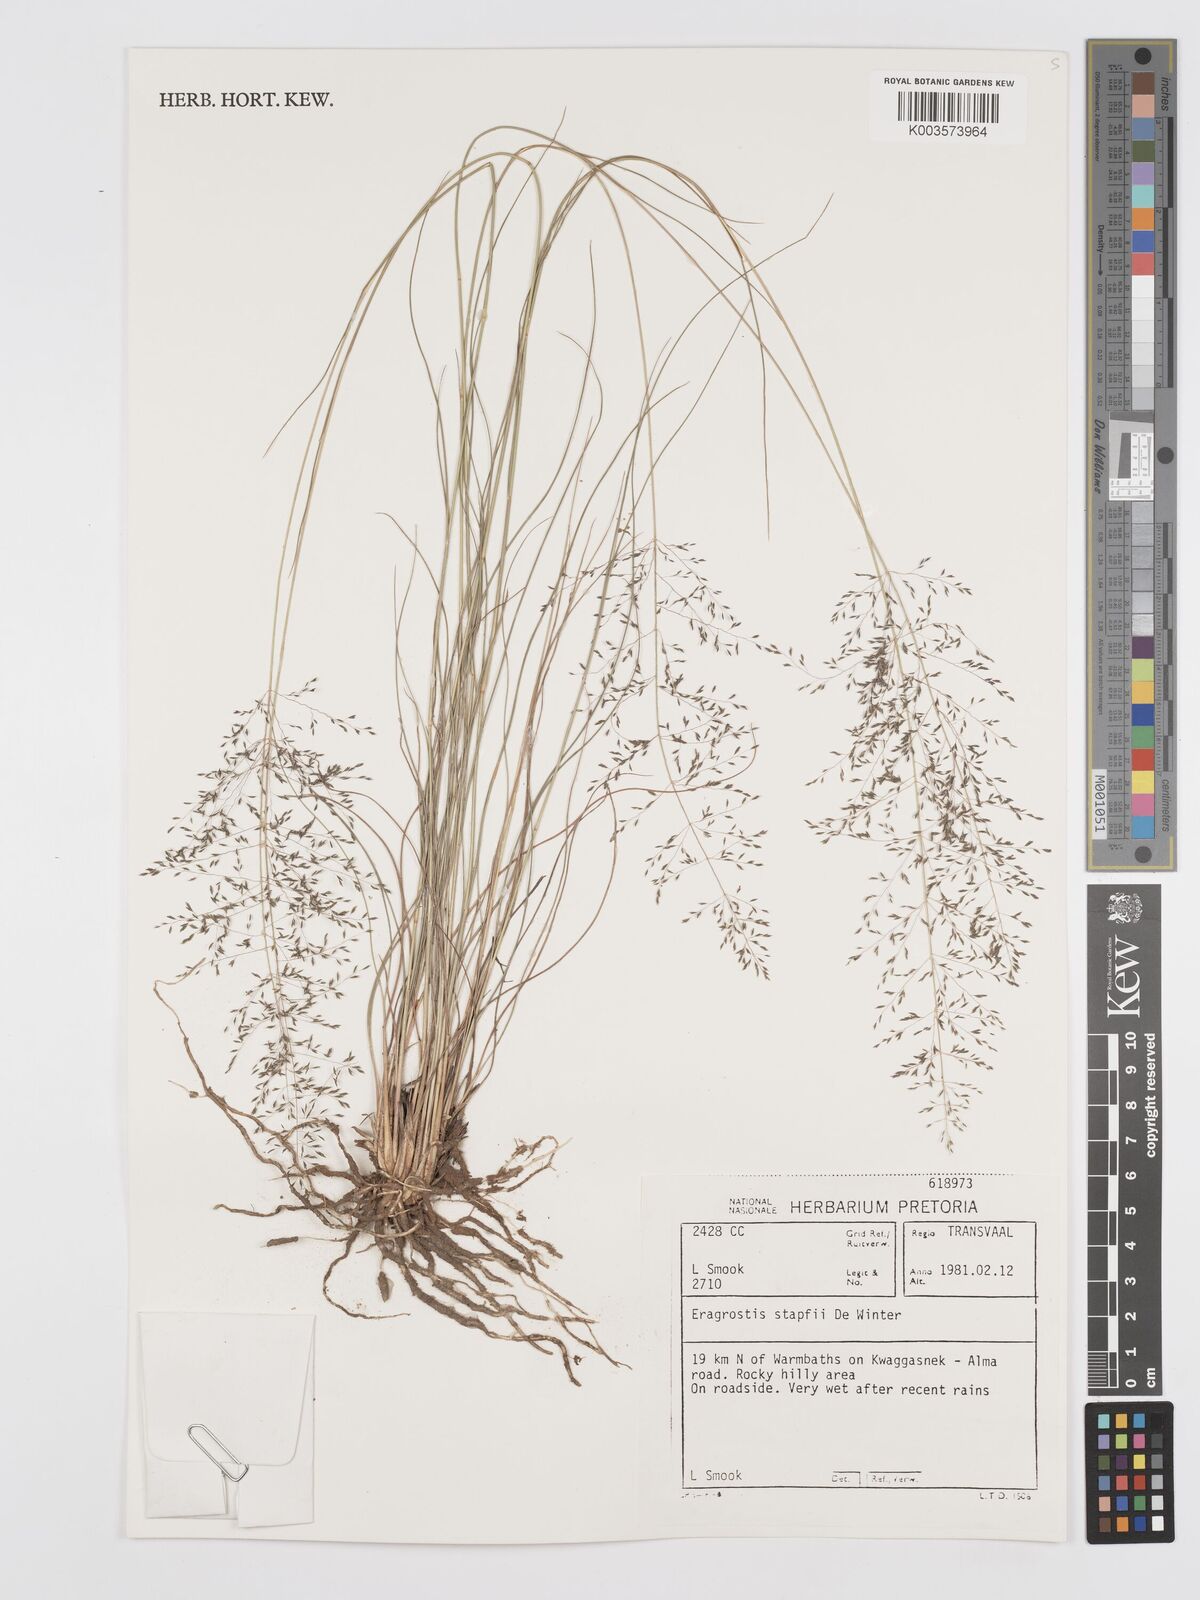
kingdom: Plantae
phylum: Tracheophyta
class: Liliopsida
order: Poales
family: Poaceae
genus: Eragrostis
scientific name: Eragrostis stapfii
